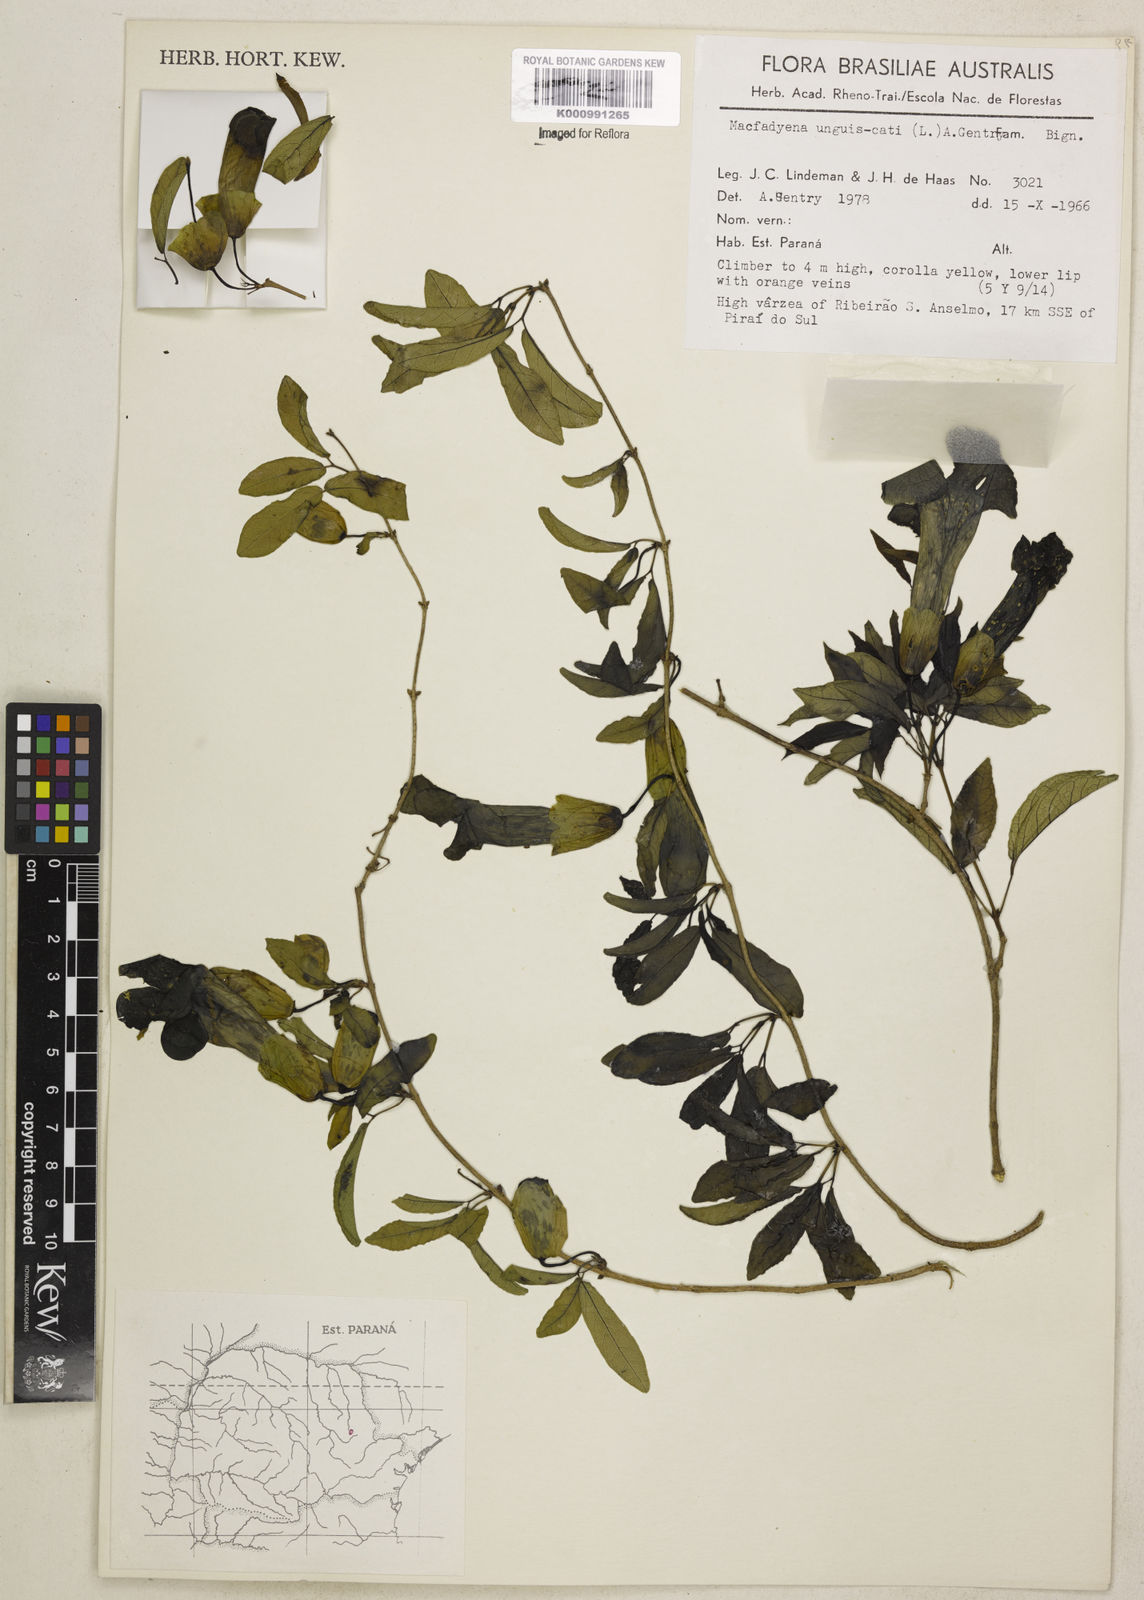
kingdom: Plantae
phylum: Tracheophyta
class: Magnoliopsida
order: Lamiales
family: Bignoniaceae
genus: Dolichandra
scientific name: Dolichandra unguis-cati
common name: Catclaw vine
